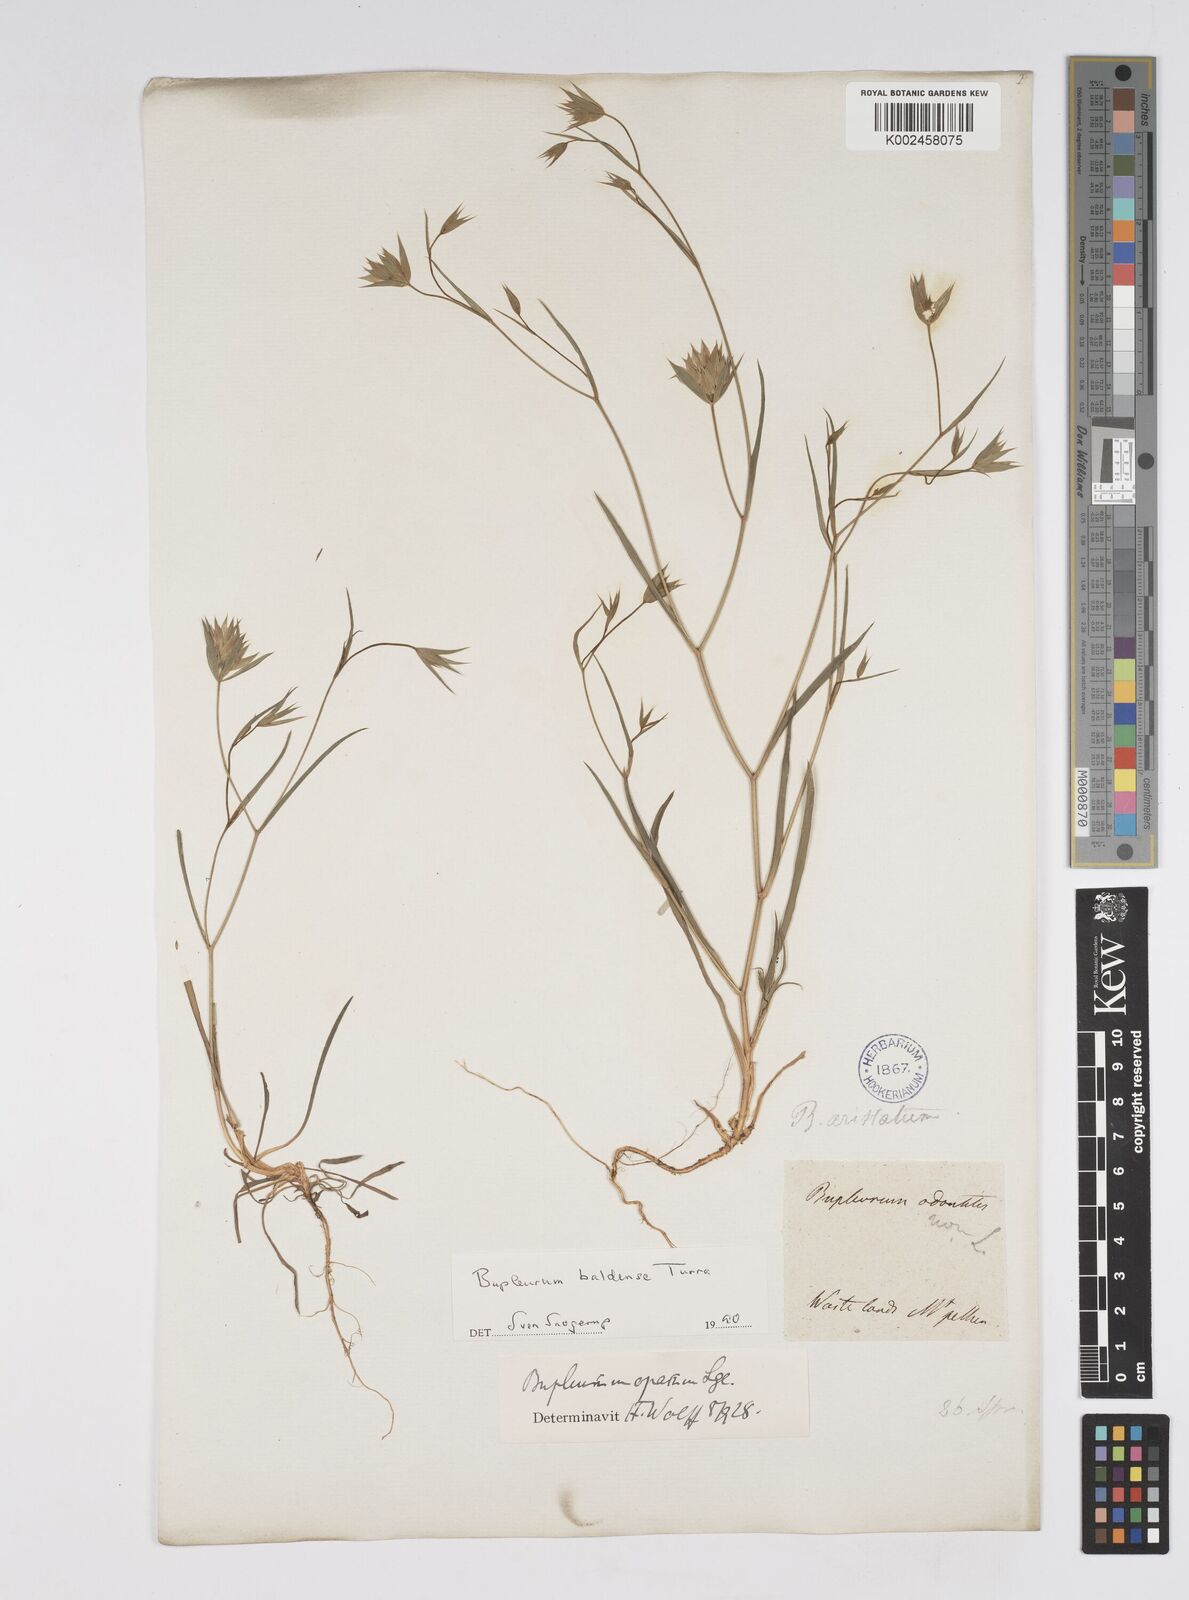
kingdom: Plantae
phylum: Tracheophyta
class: Magnoliopsida
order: Apiales
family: Apiaceae
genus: Bupleurum
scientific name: Bupleurum baldense
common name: Small hare's-ear
